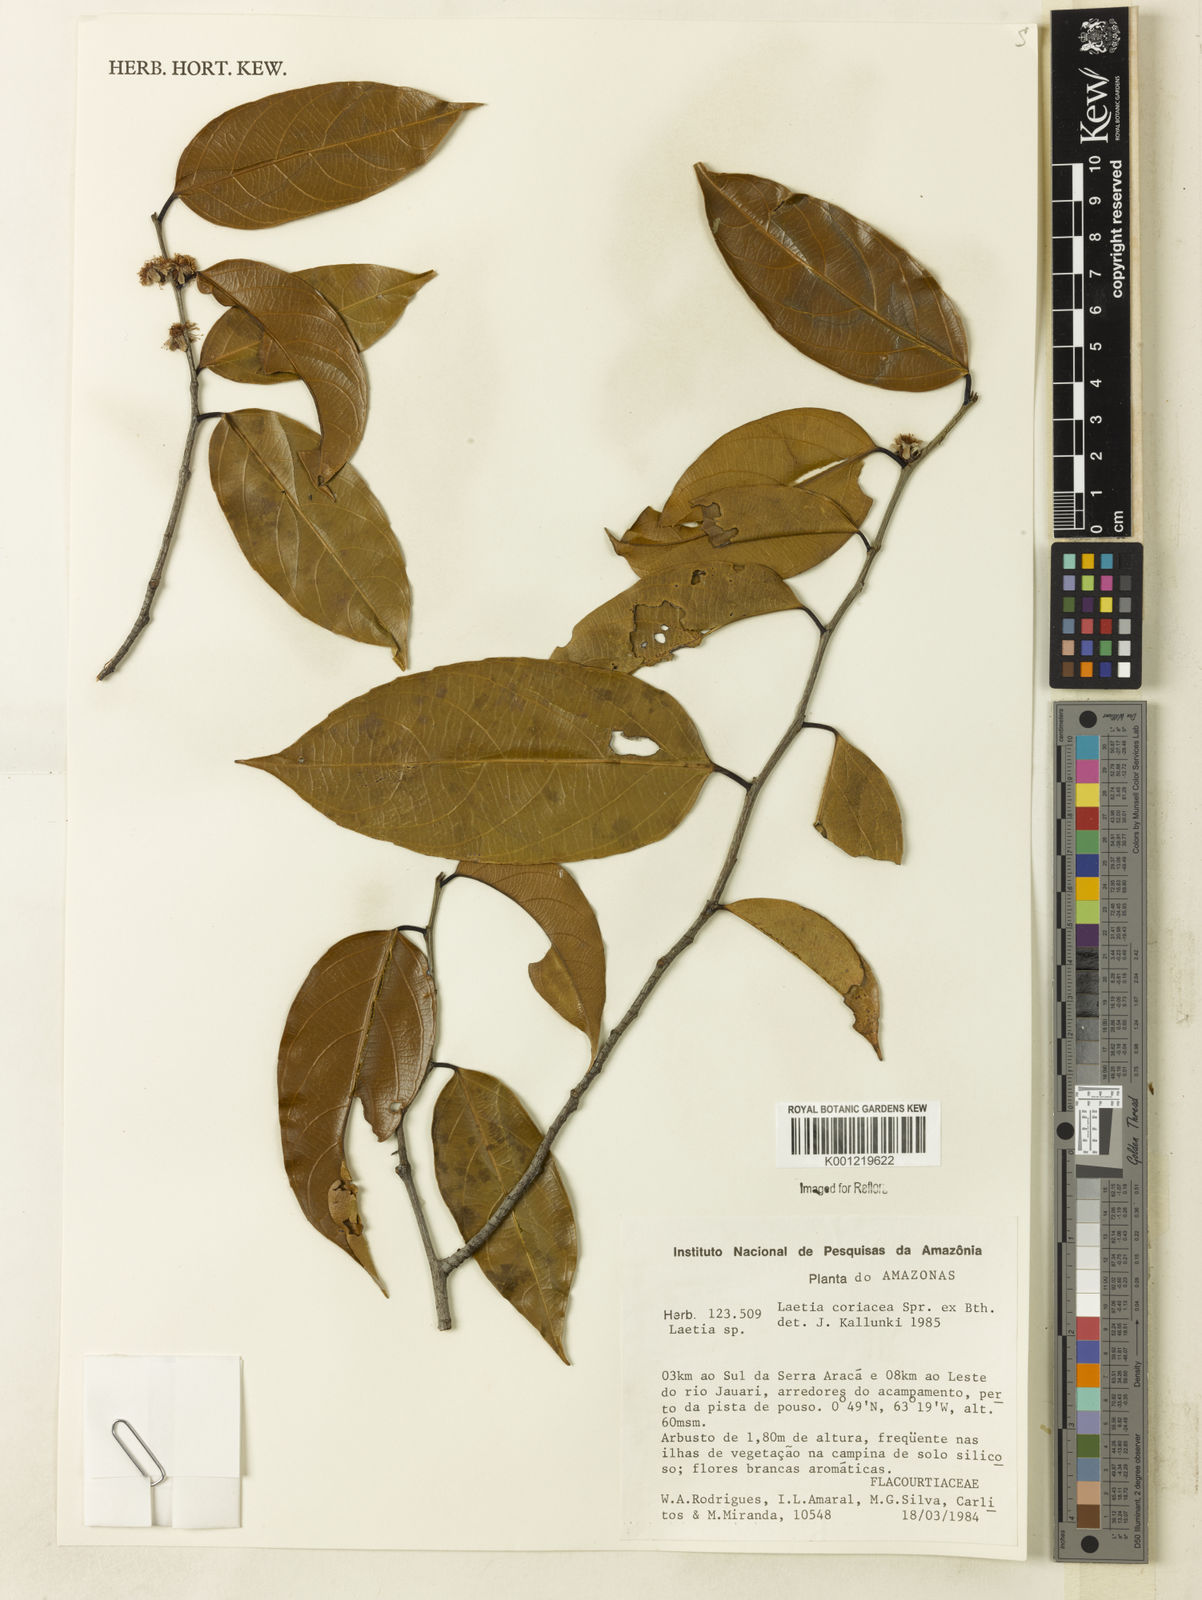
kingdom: Plantae
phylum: Tracheophyta
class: Magnoliopsida
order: Malpighiales
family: Salicaceae
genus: Irenodendron
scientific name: Irenodendron coriaceum
